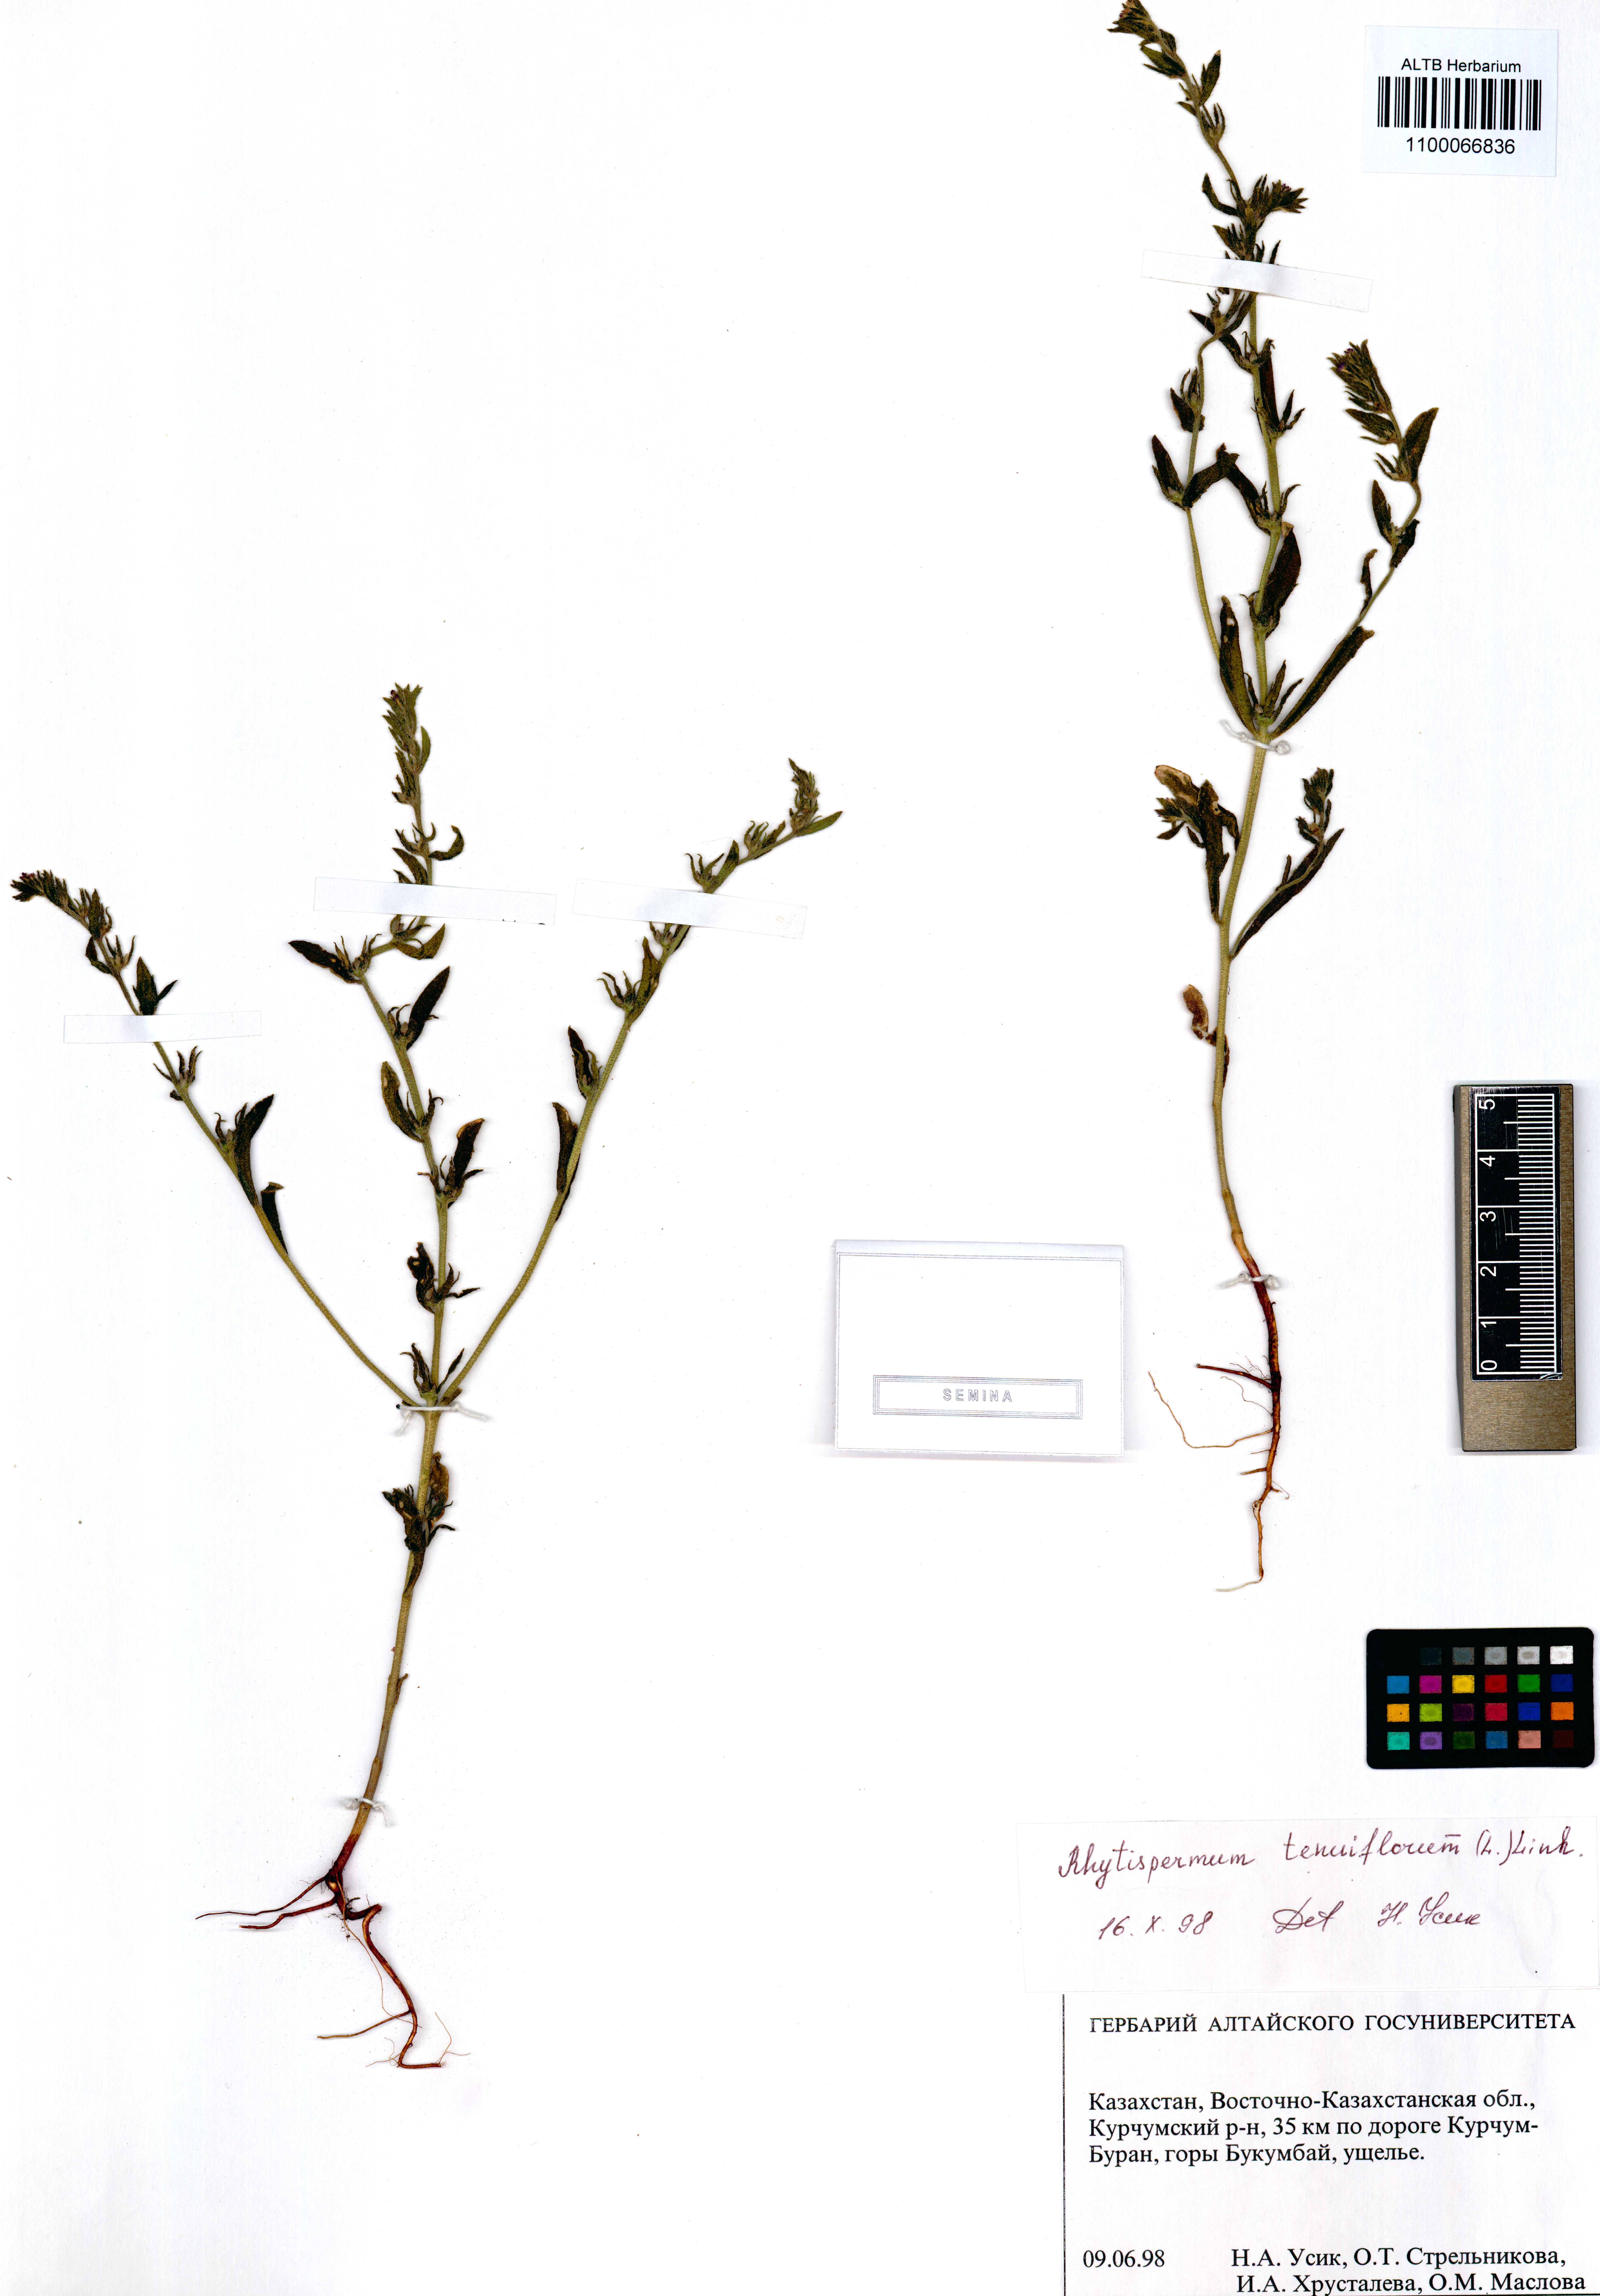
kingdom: Plantae
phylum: Tracheophyta
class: Magnoliopsida
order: Boraginales
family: Boraginaceae
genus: Buglossoides
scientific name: Buglossoides tenuiflora
